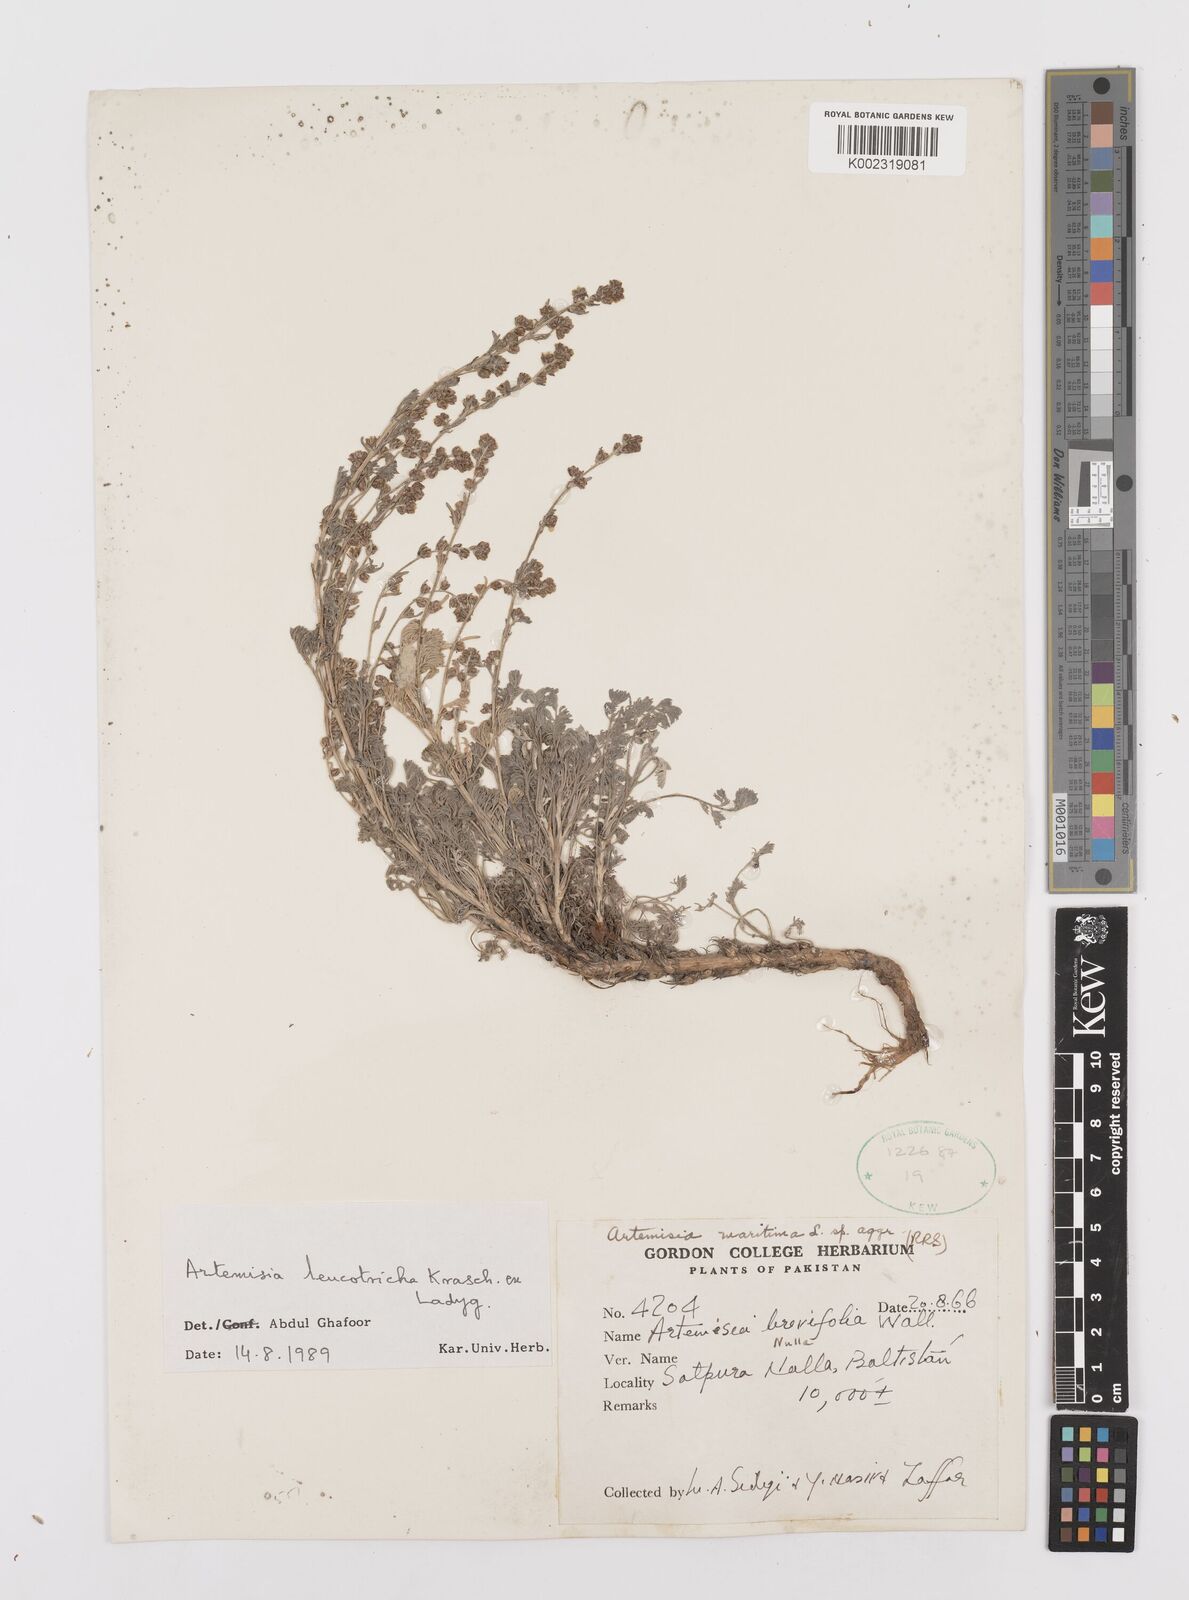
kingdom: Plantae
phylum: Tracheophyta
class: Magnoliopsida
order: Asterales
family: Asteraceae
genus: Artemisia
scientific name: Artemisia leucotricha
